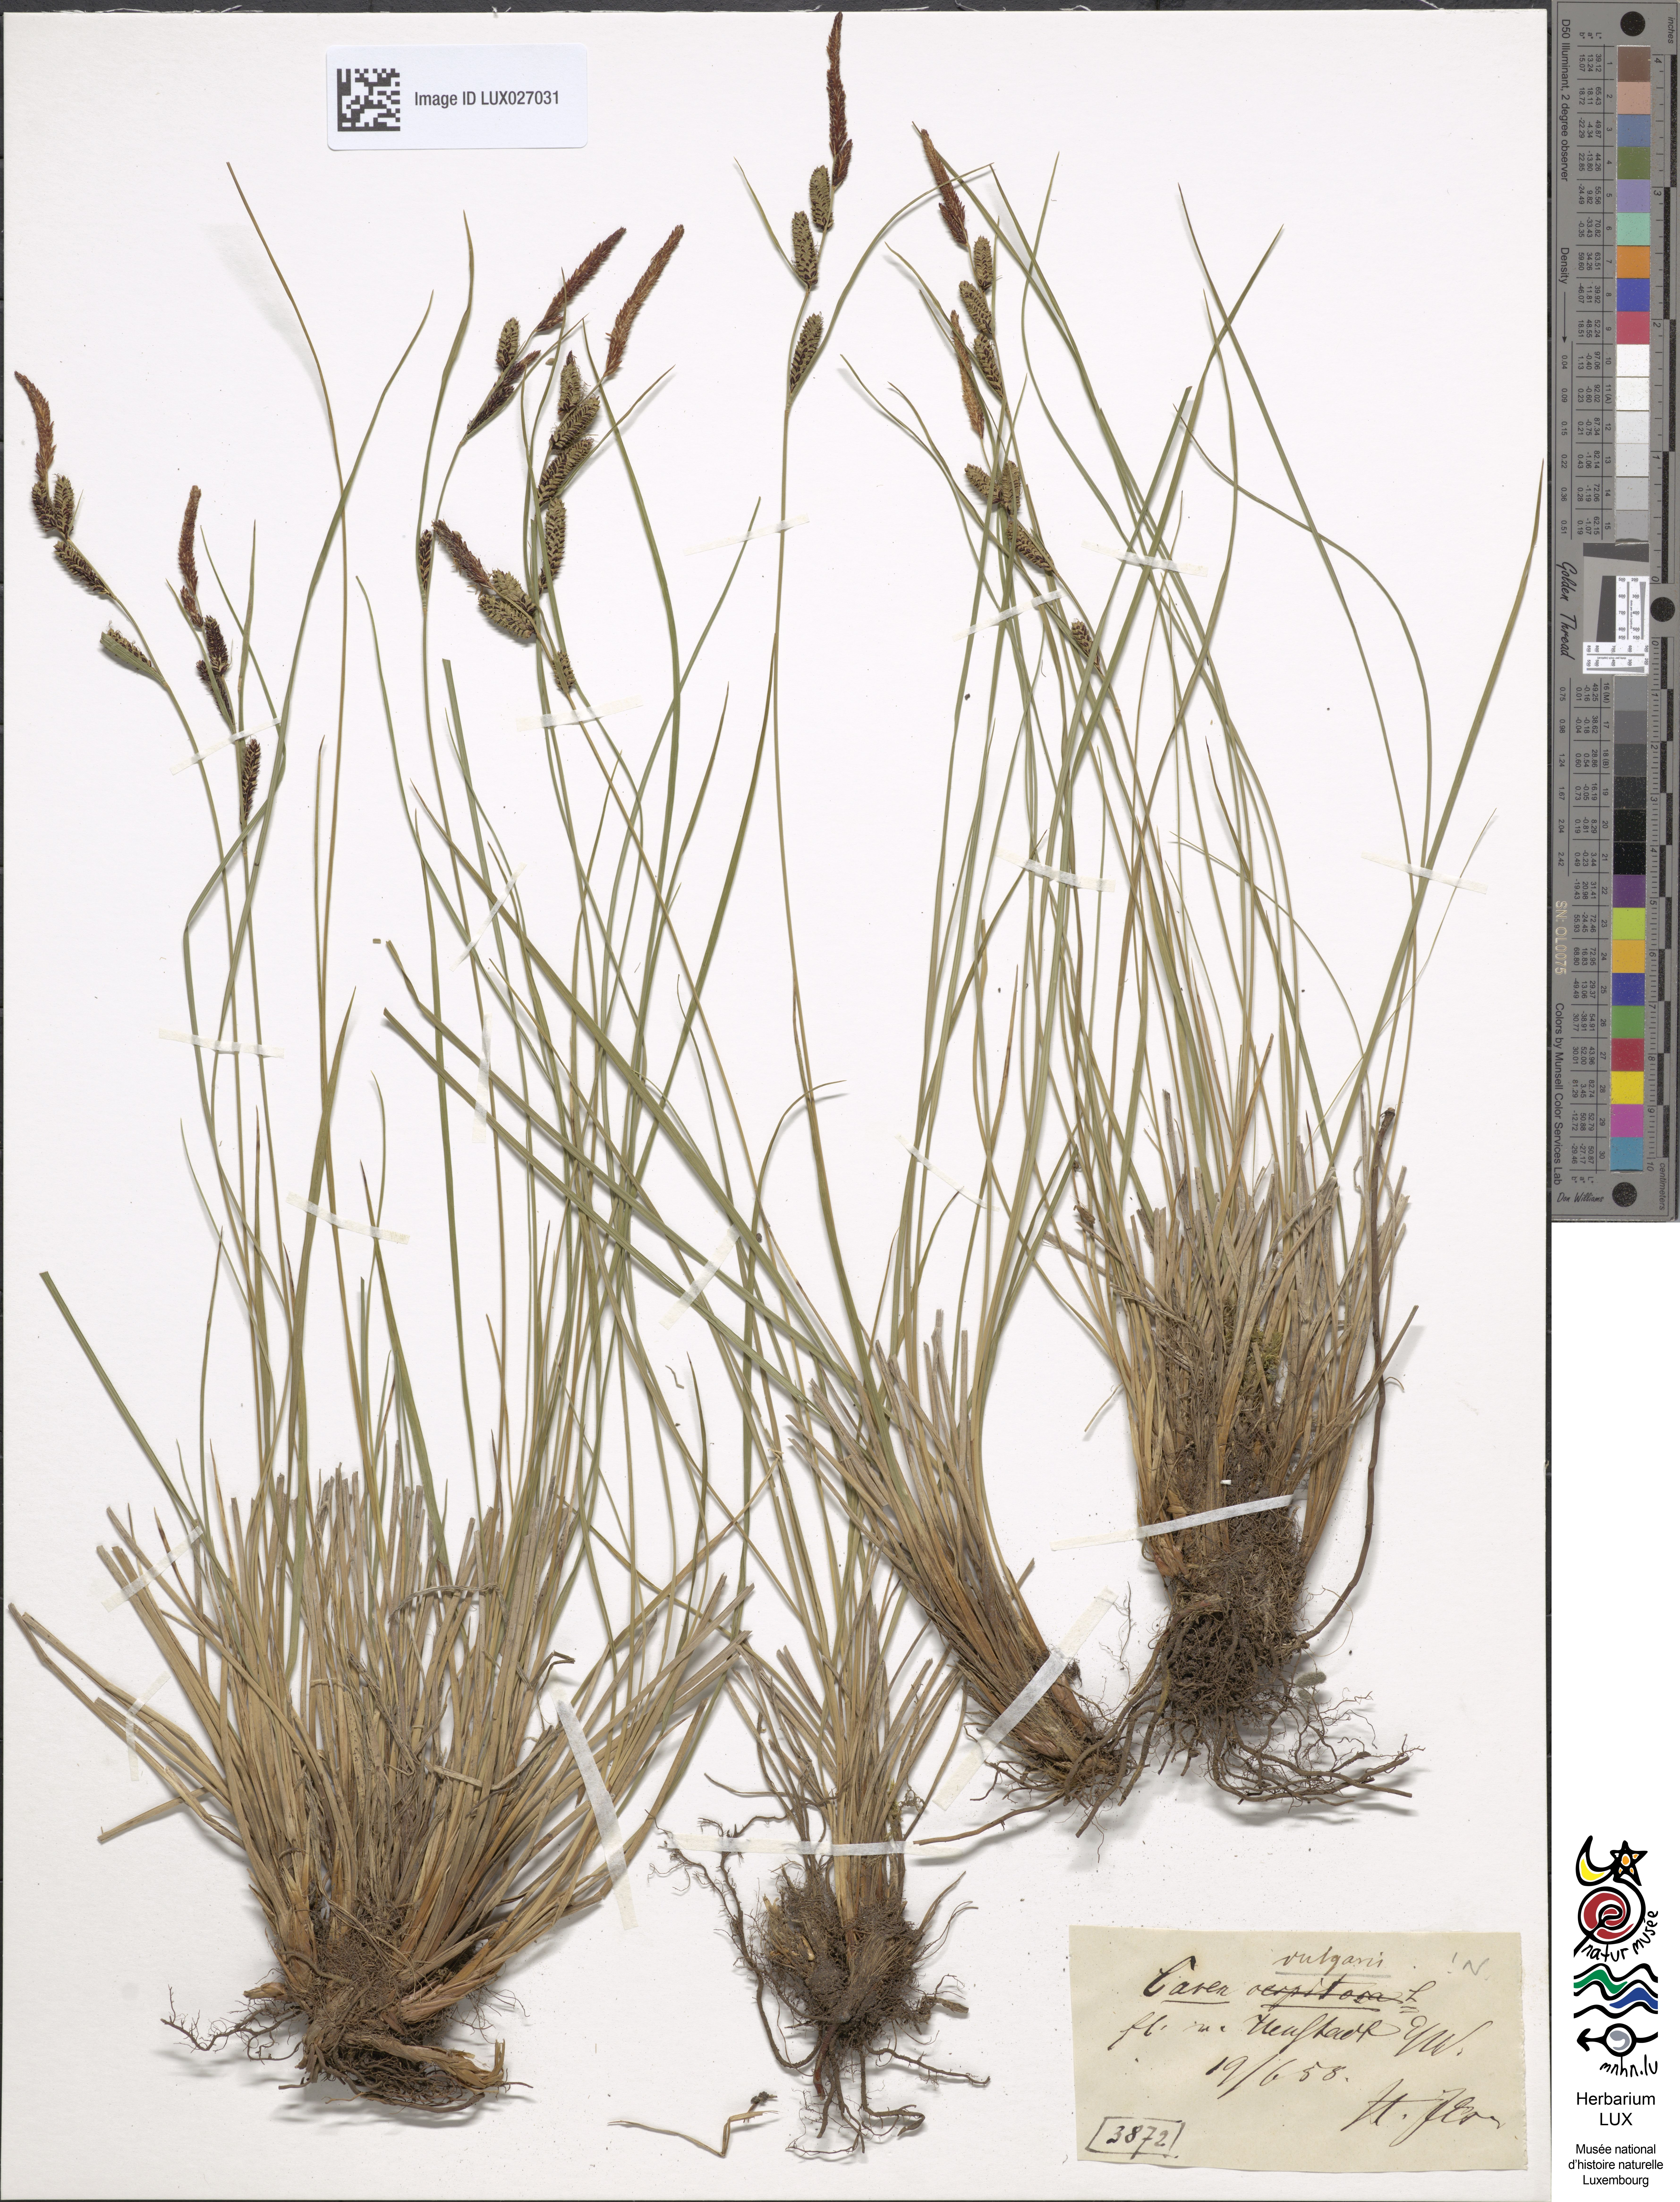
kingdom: Plantae
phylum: Tracheophyta
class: Liliopsida
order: Poales
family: Cyperaceae
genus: Carex
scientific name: Carex nigra
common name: Common sedge
